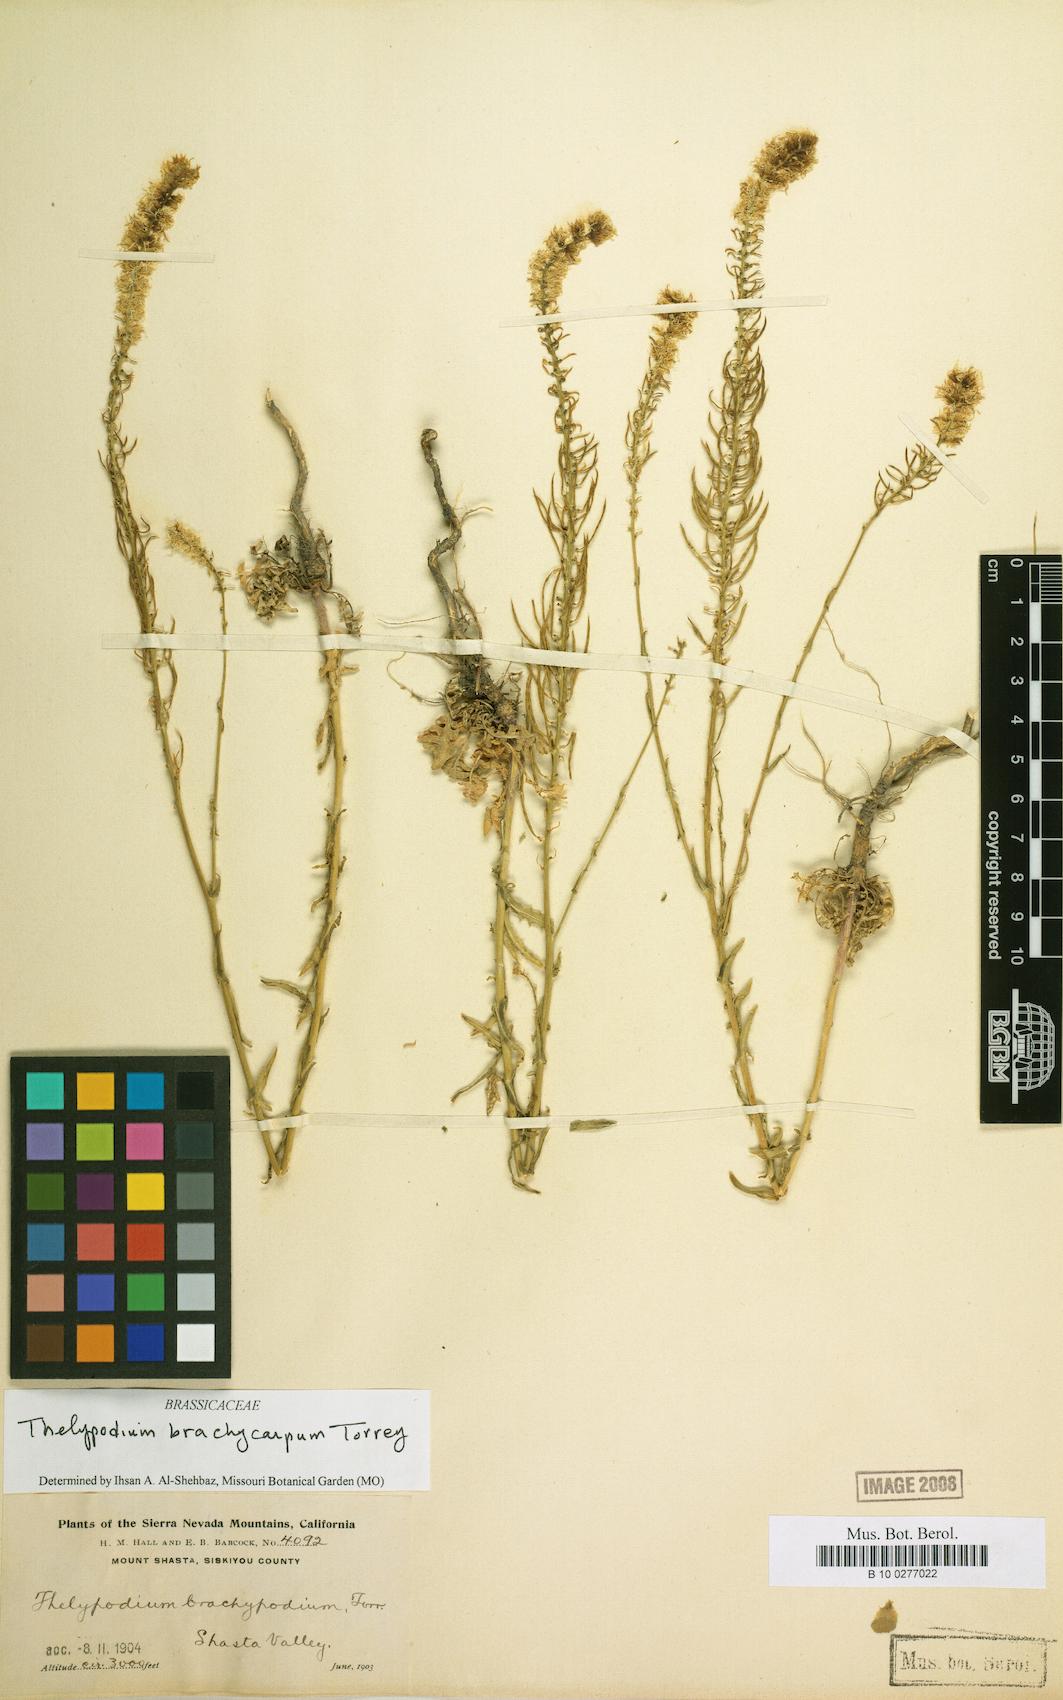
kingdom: Plantae
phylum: Tracheophyta
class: Magnoliopsida
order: Brassicales
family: Brassicaceae
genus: Thelypodium
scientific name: Thelypodium brachycarpum
